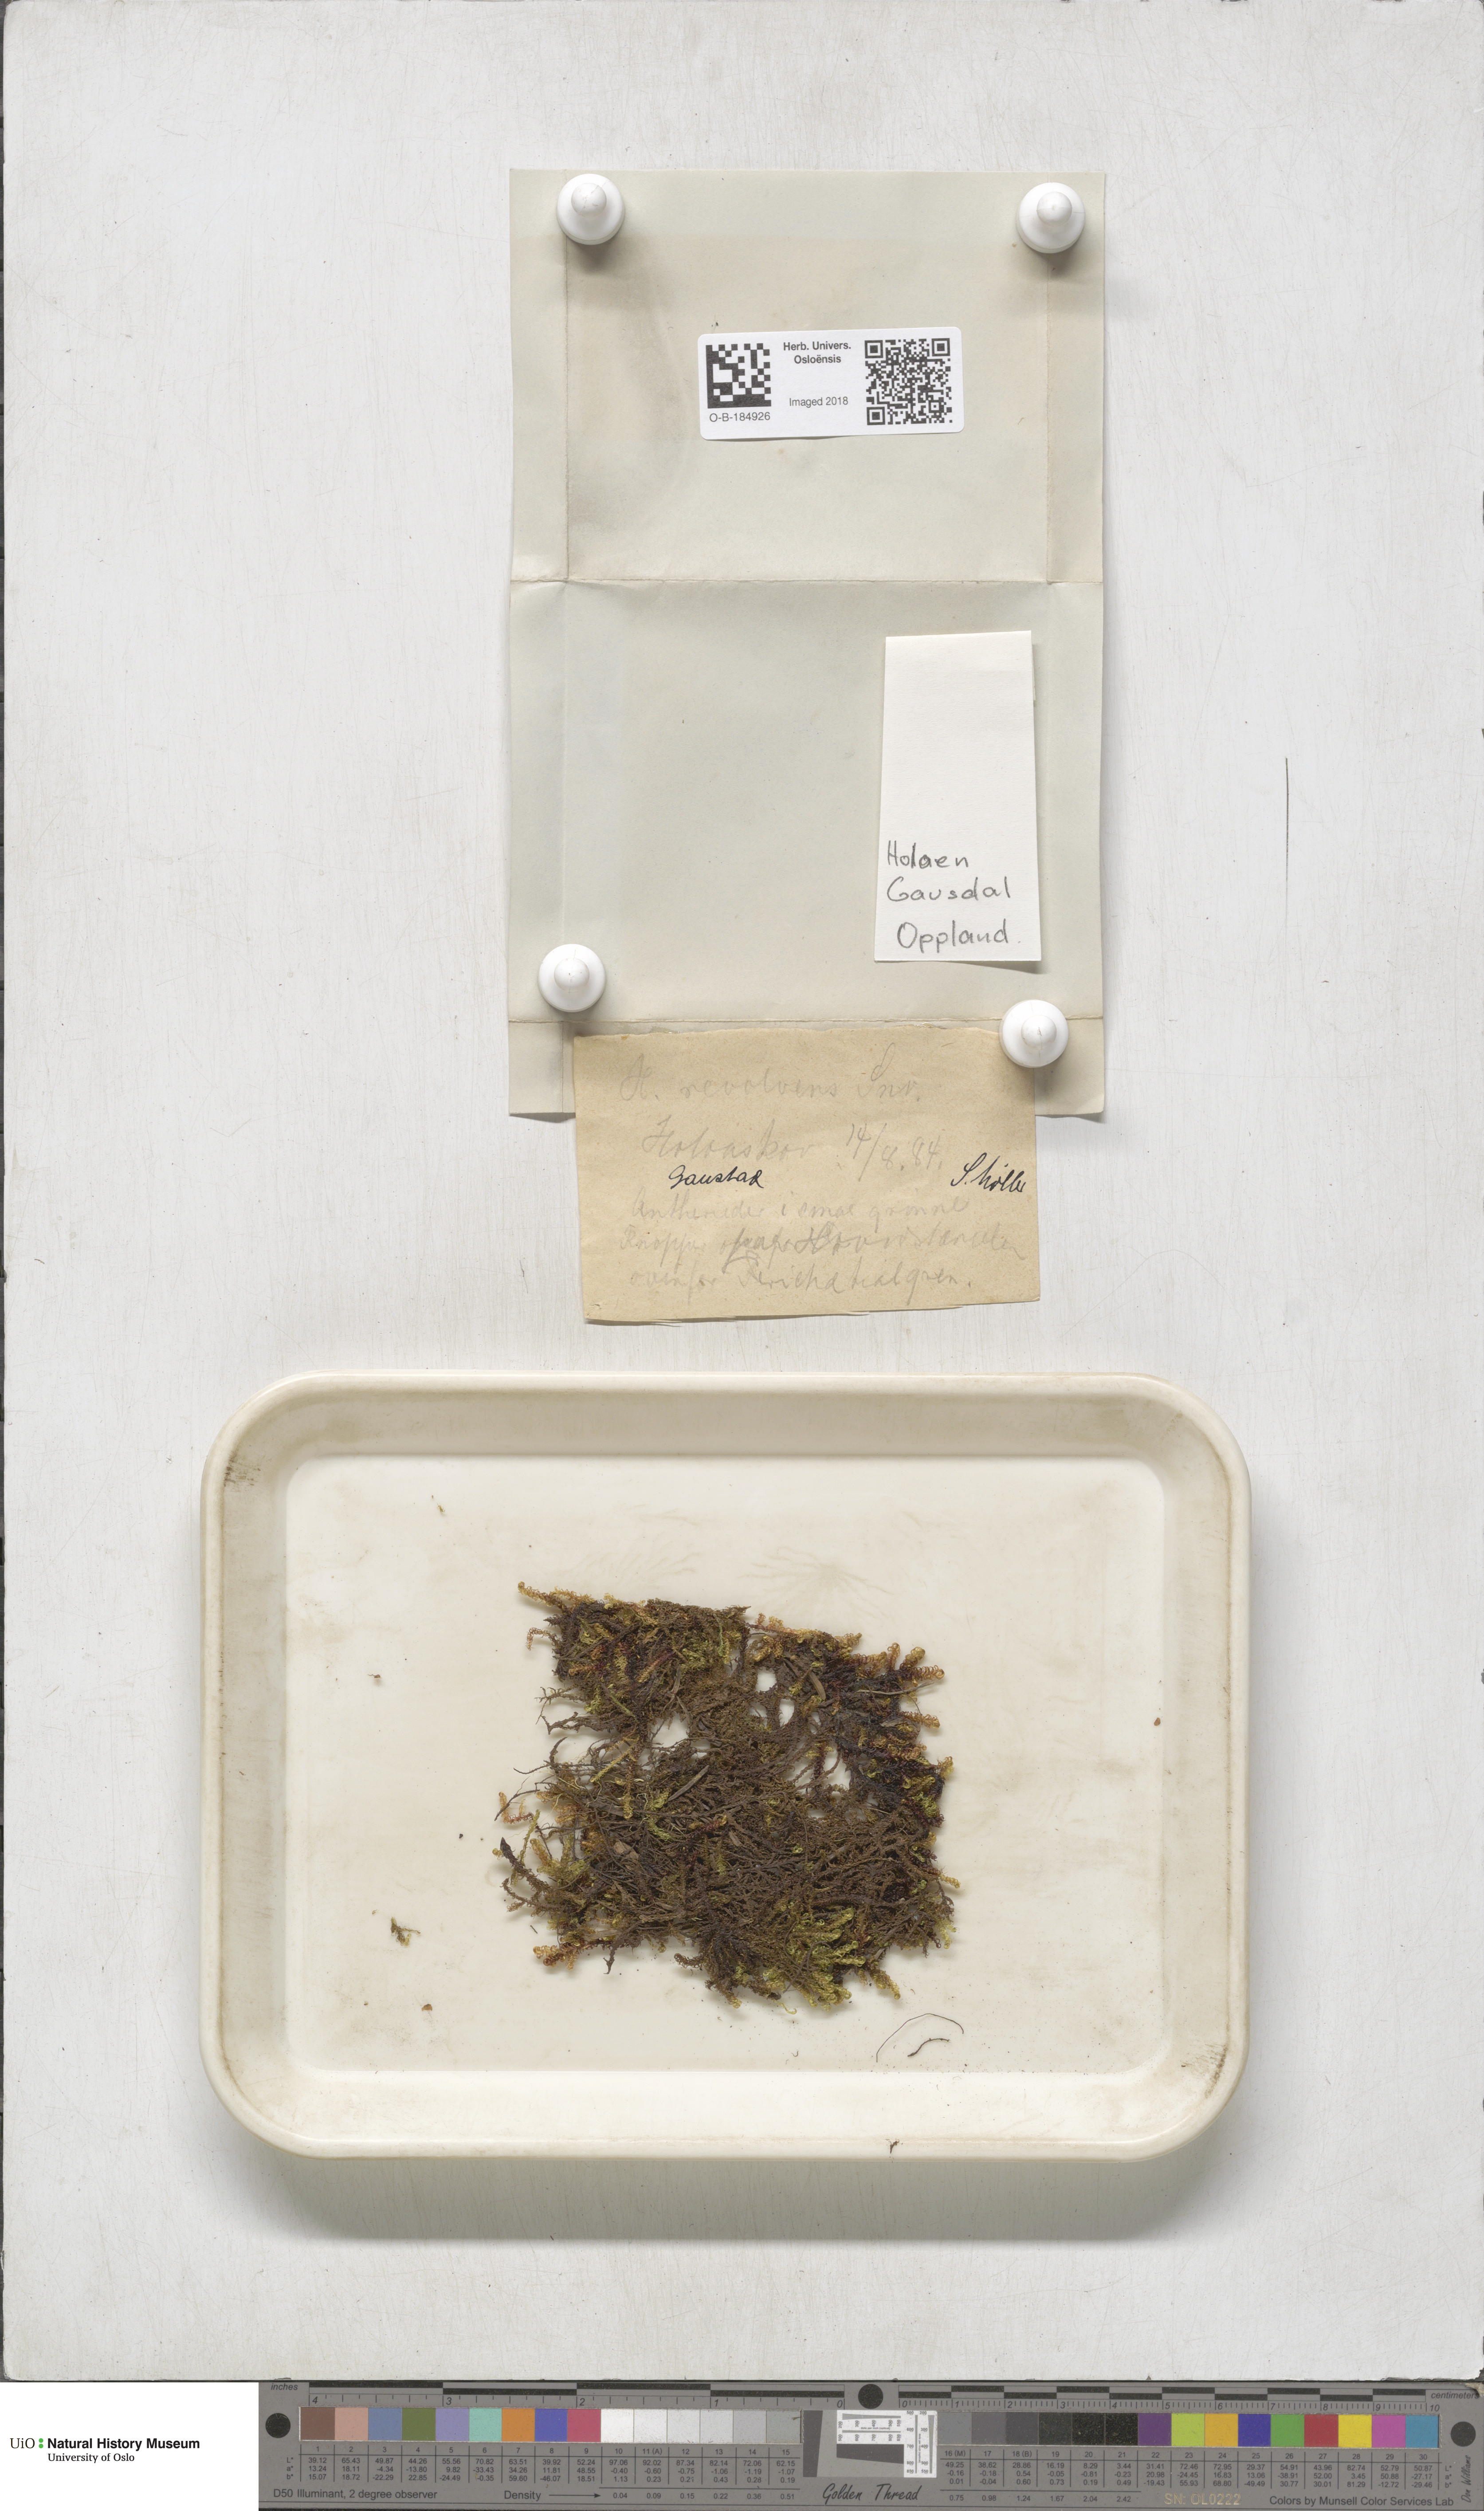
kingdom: Plantae
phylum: Bryophyta
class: Bryopsida
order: Hypnales
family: Scorpidiaceae
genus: Scorpidium
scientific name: Scorpidium revolvens
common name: Rusty hook moss
